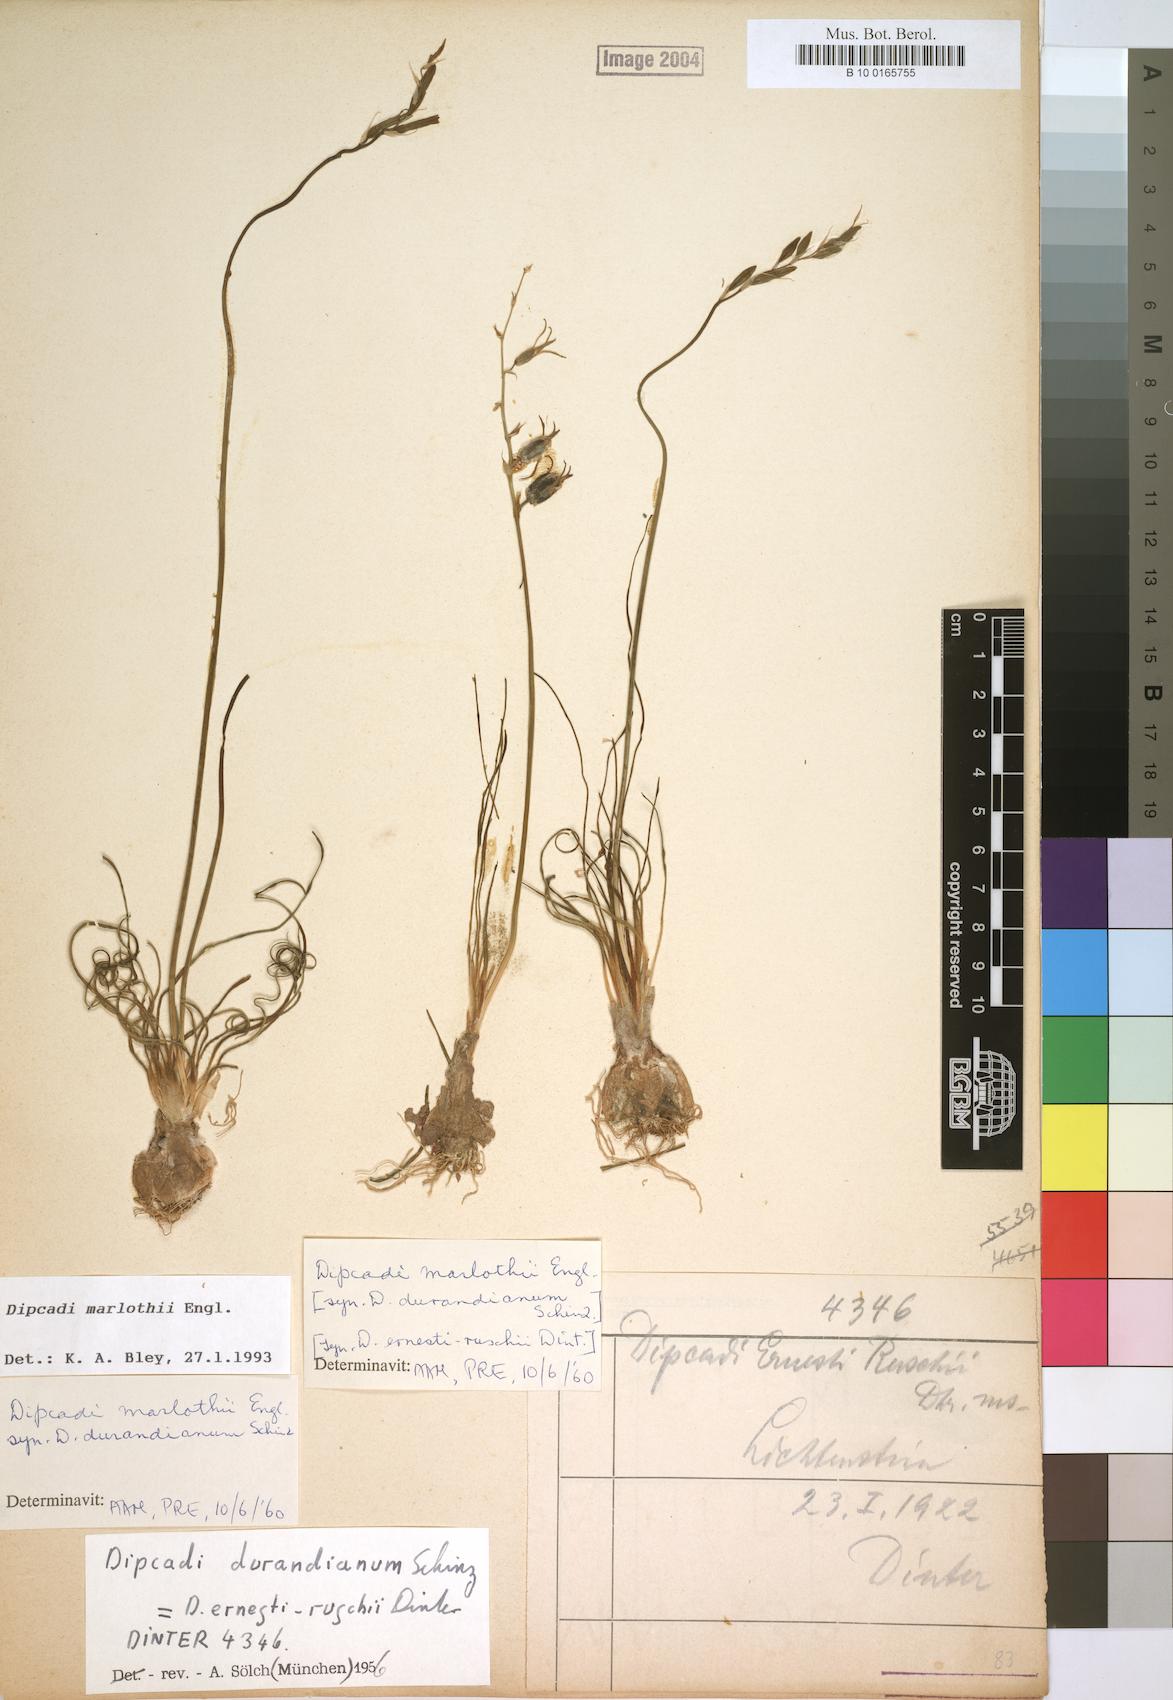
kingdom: Plantae
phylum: Tracheophyta
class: Liliopsida
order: Asparagales
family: Asparagaceae
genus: Dipcadi
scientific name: Dipcadi marlothii
